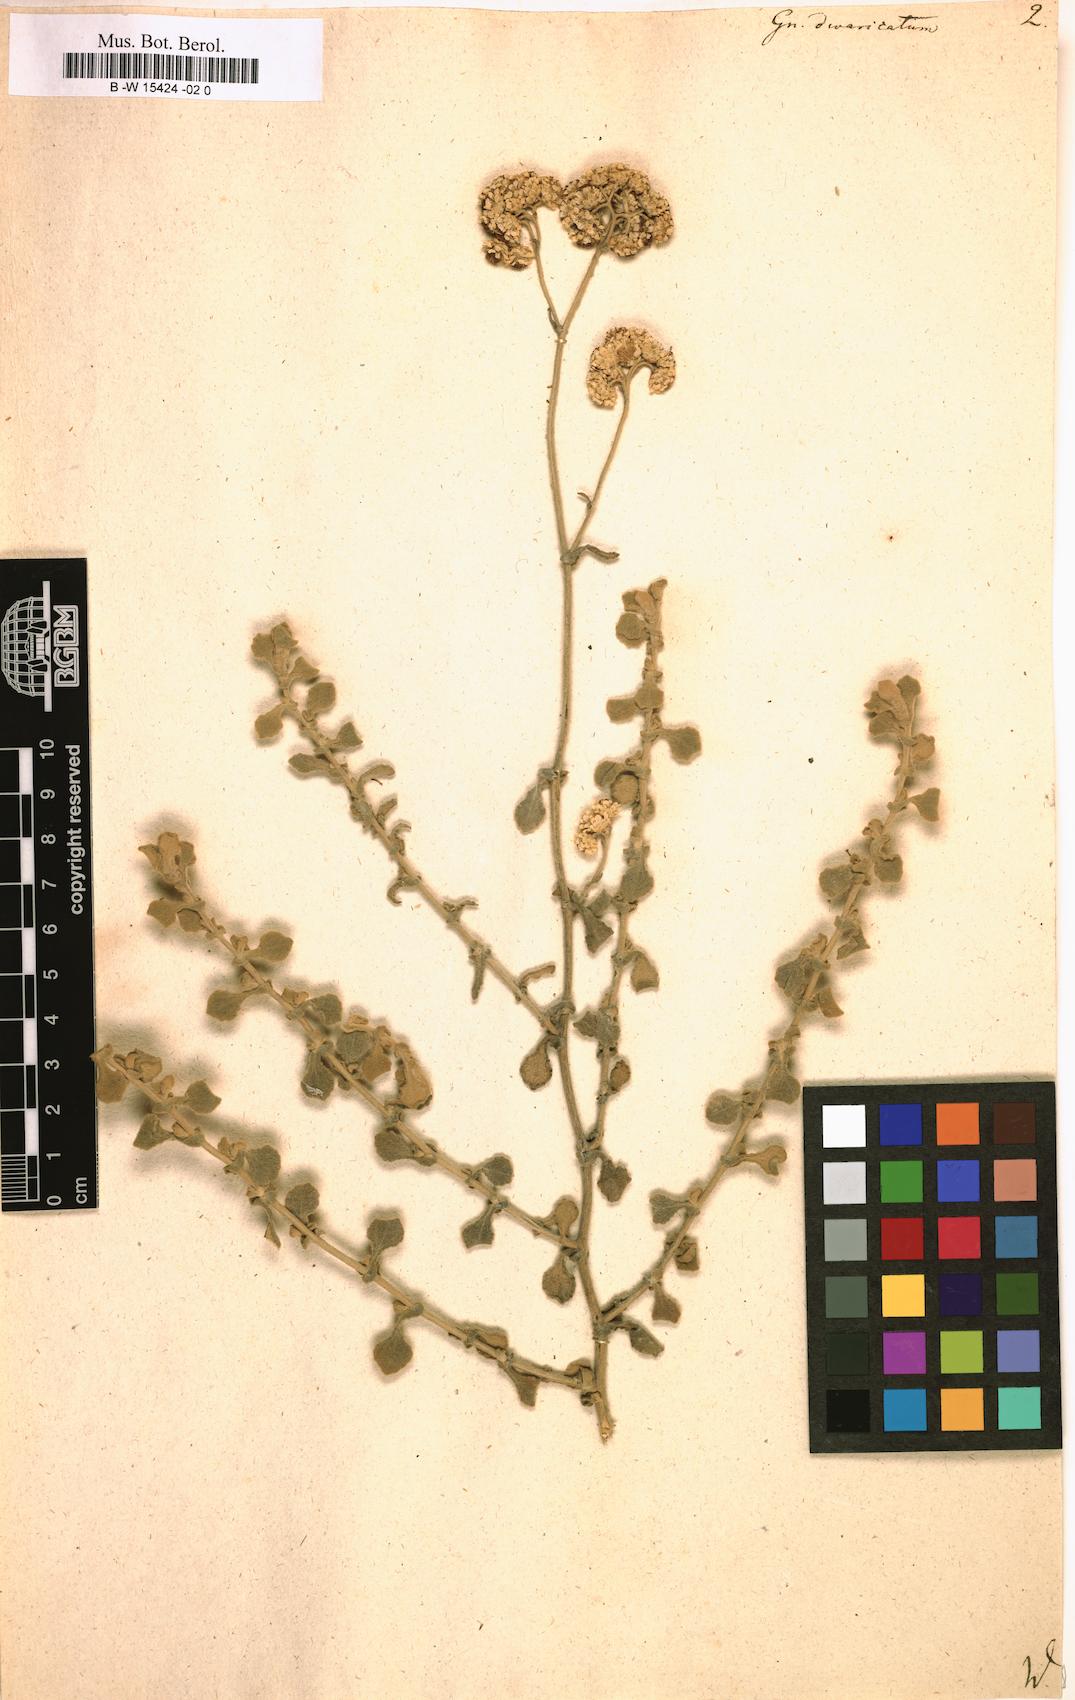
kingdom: Plantae
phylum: Tracheophyta
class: Magnoliopsida
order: Asterales
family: Asteraceae
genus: Helichrysum
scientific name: Helichrysum crispum
